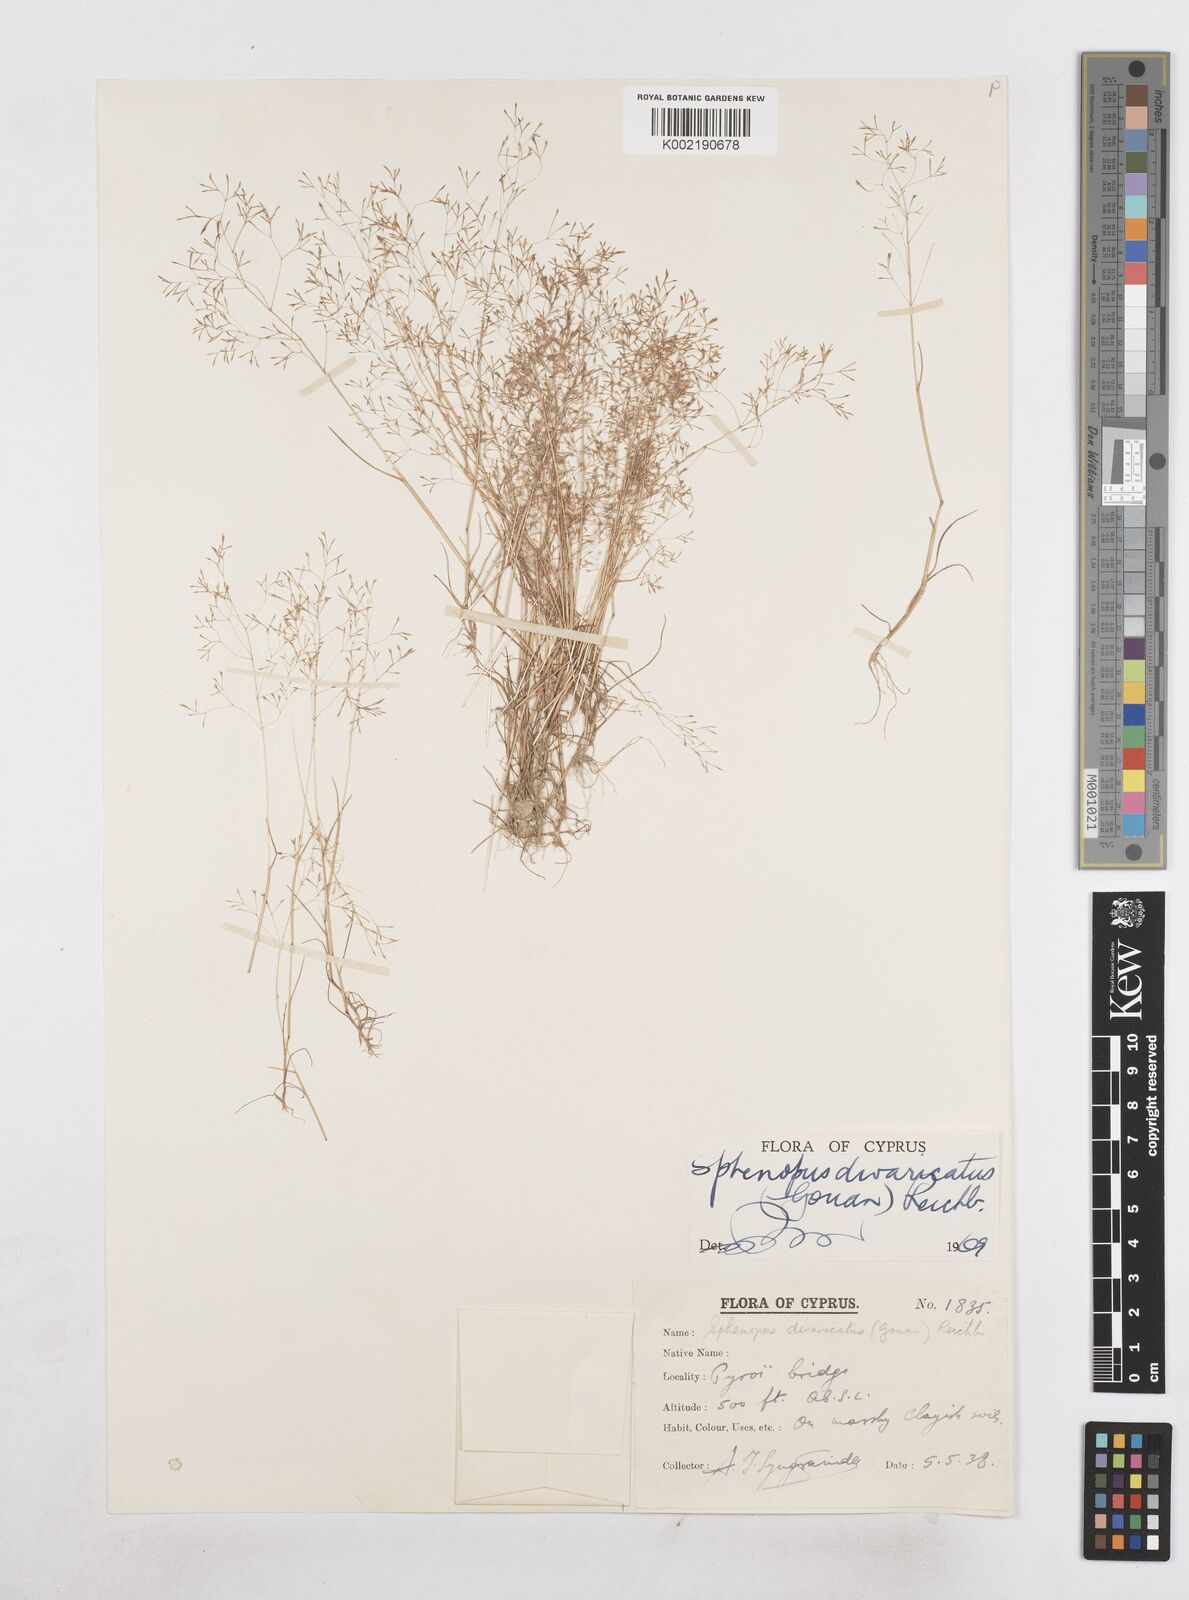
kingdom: Plantae
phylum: Tracheophyta
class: Liliopsida
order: Poales
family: Poaceae
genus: Sphenopus
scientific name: Sphenopus divaricatus
